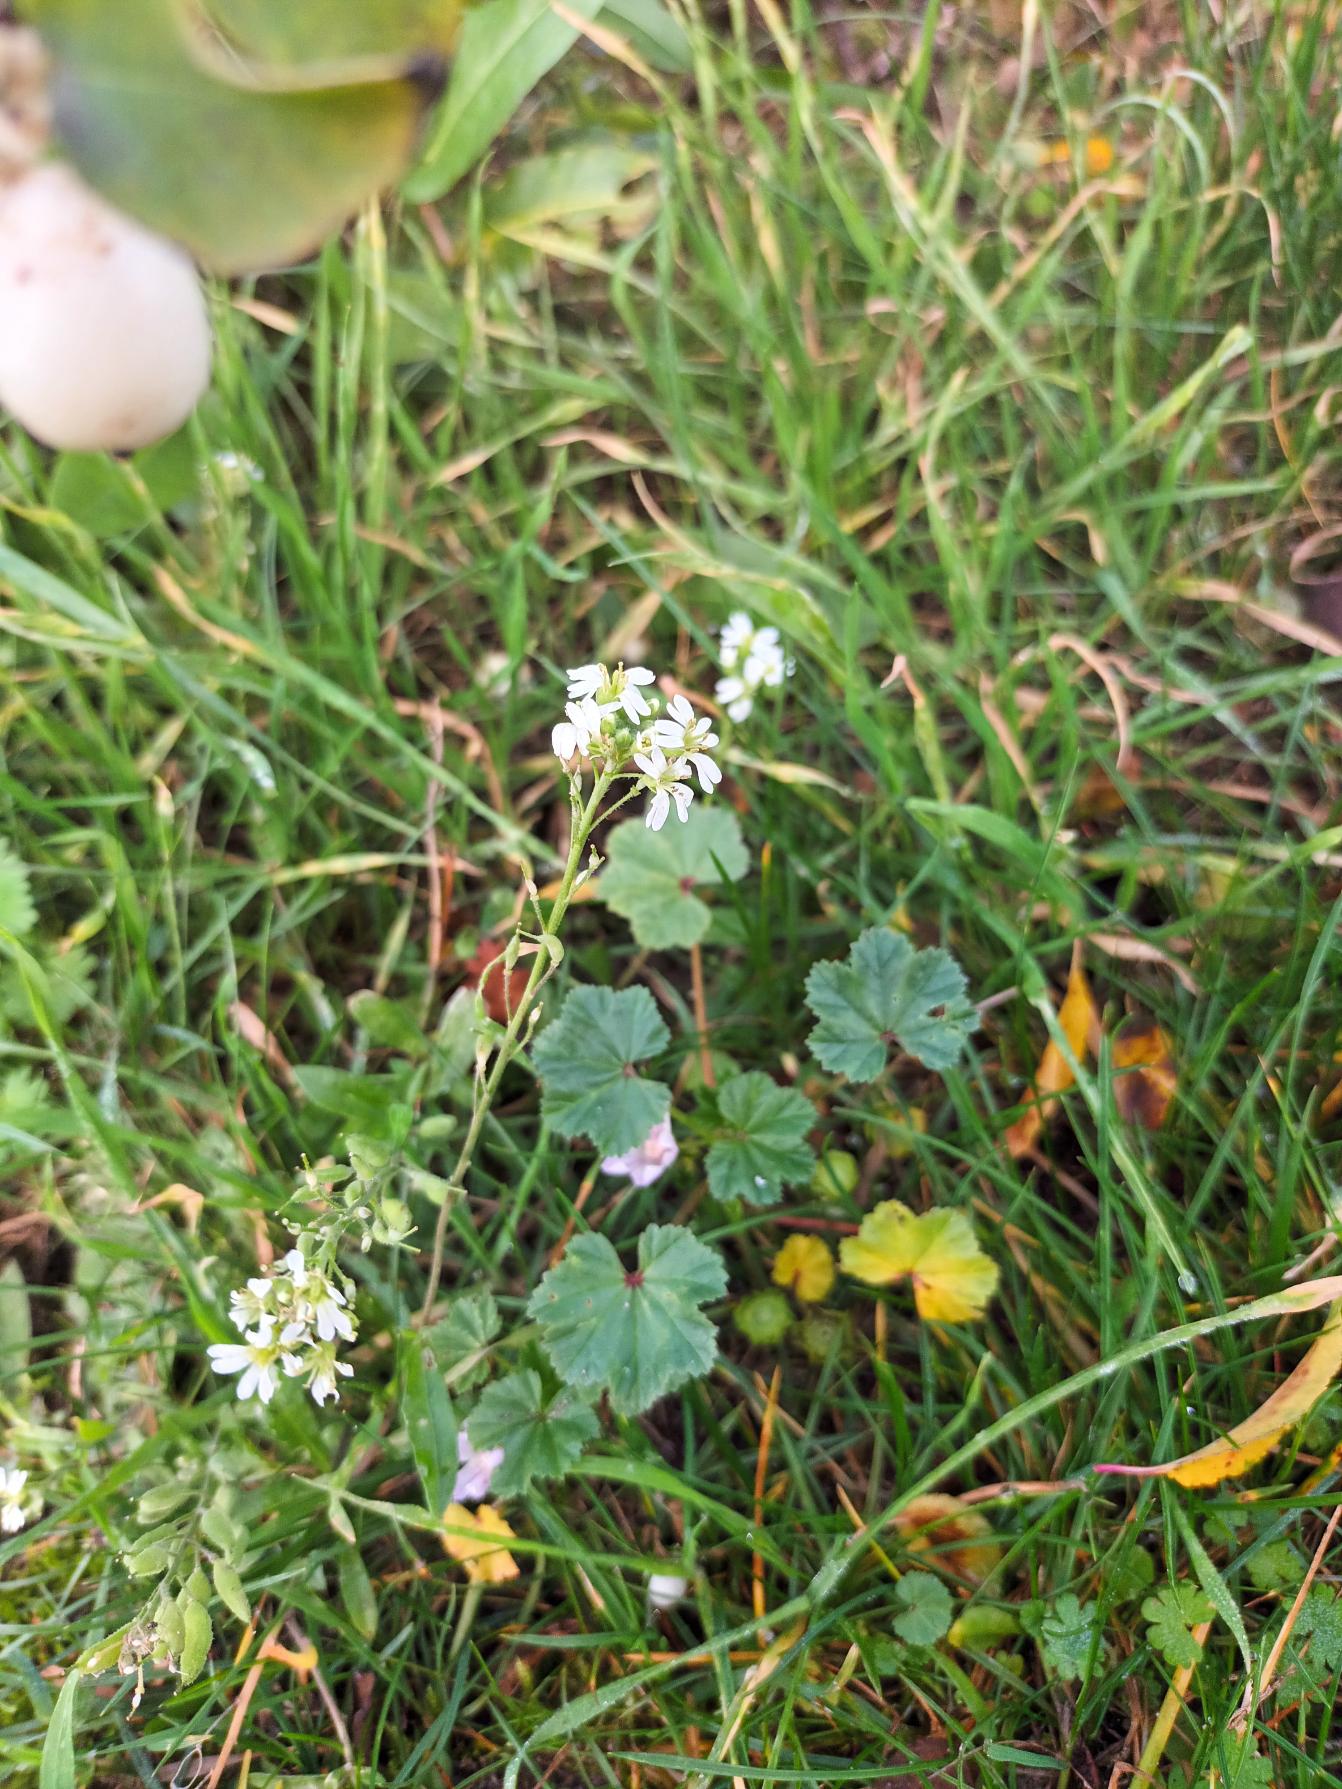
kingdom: Plantae
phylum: Tracheophyta
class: Magnoliopsida
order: Brassicales
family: Brassicaceae
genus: Berteroa
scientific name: Berteroa incana
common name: Kløvplade
